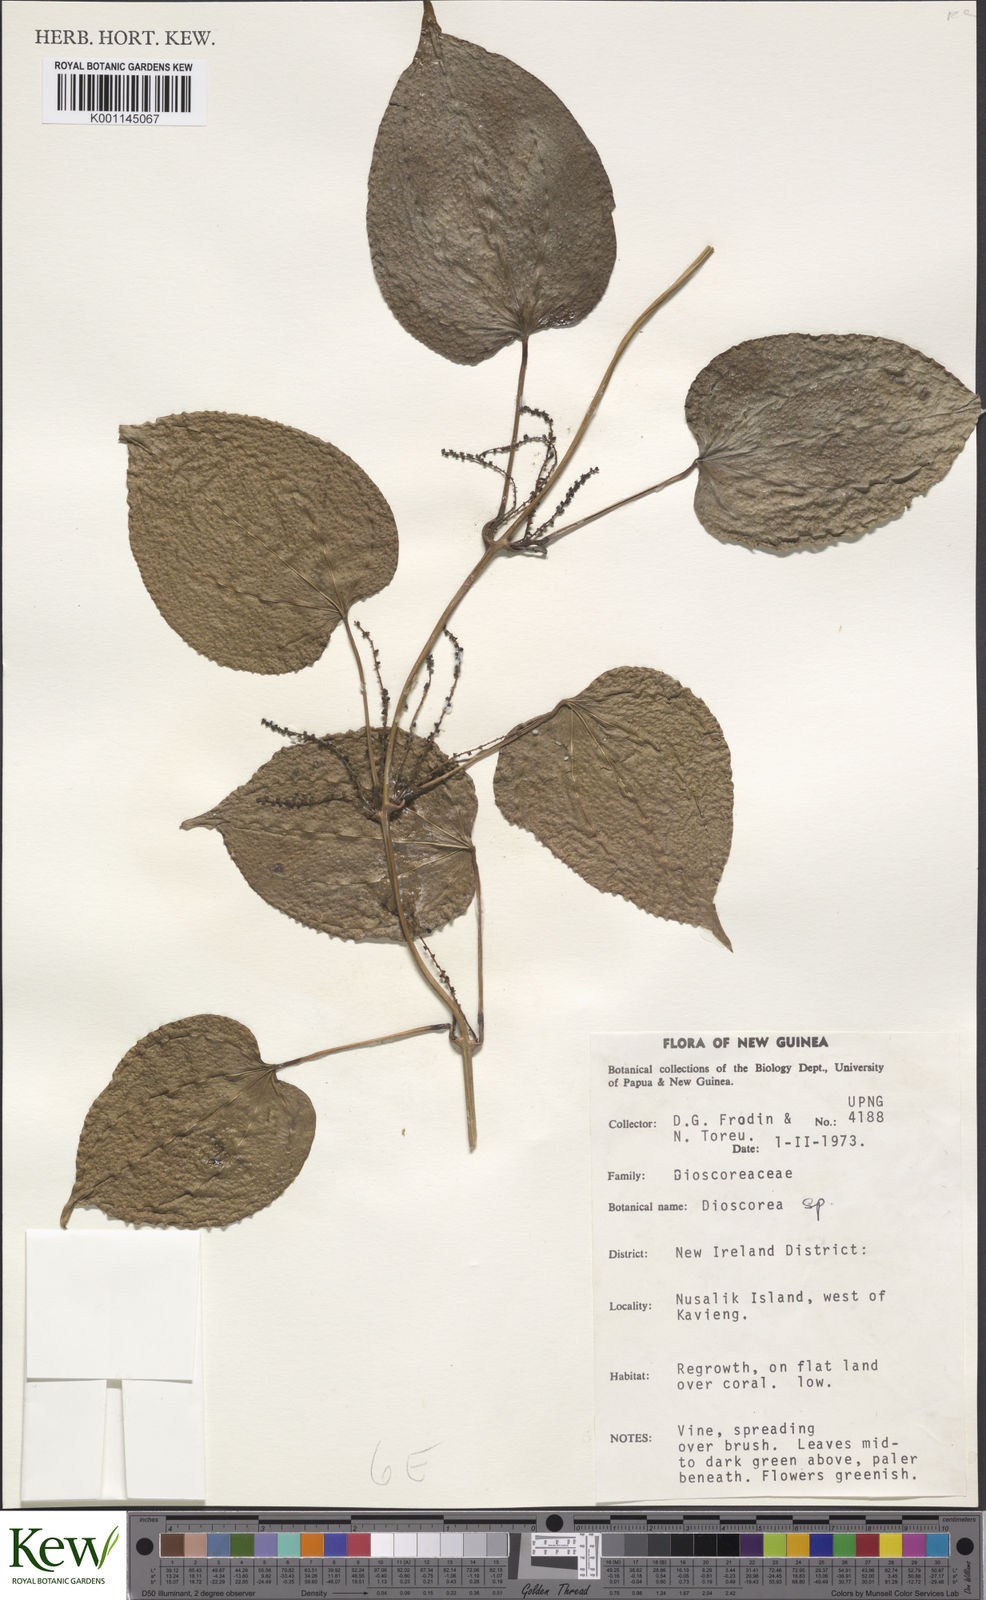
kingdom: Plantae
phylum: Tracheophyta
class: Liliopsida
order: Dioscoreales
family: Dioscoreaceae
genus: Dioscorea
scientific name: Dioscorea
